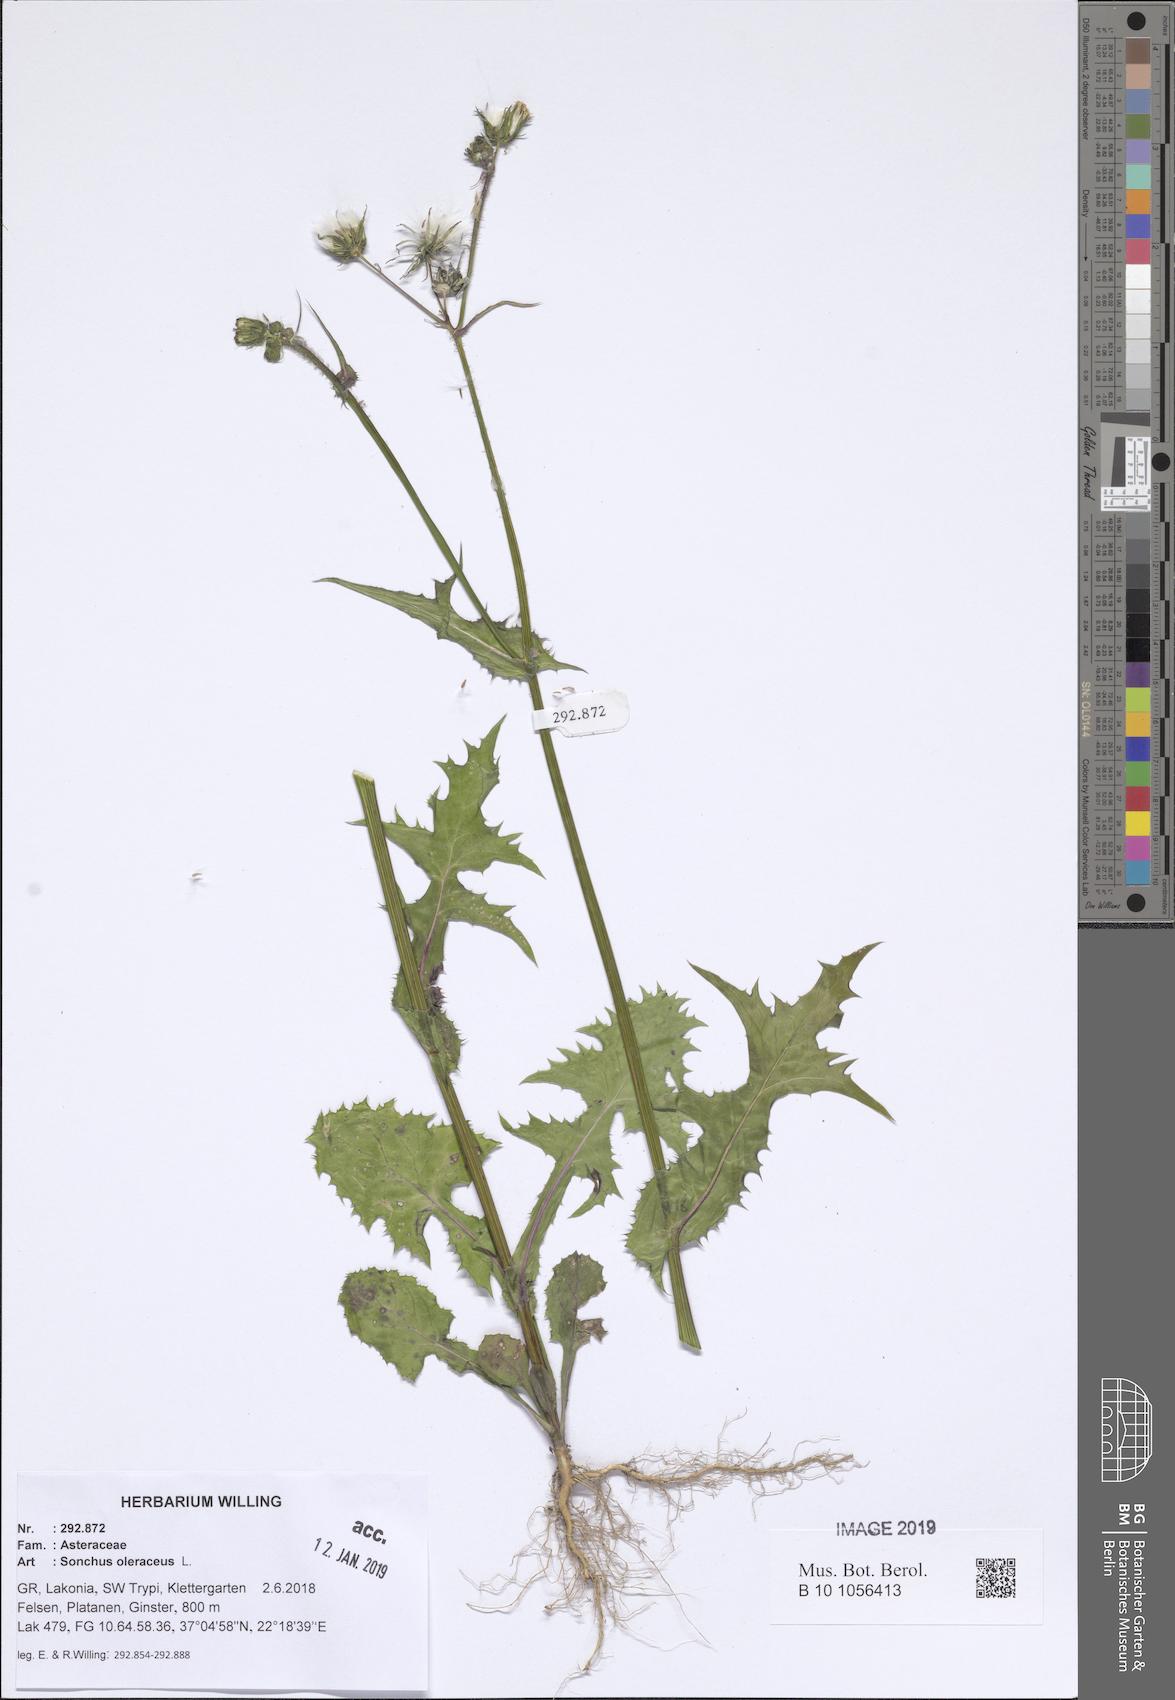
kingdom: Plantae
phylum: Tracheophyta
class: Magnoliopsida
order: Asterales
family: Asteraceae
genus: Sonchus
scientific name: Sonchus oleraceus
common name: Common sowthistle
